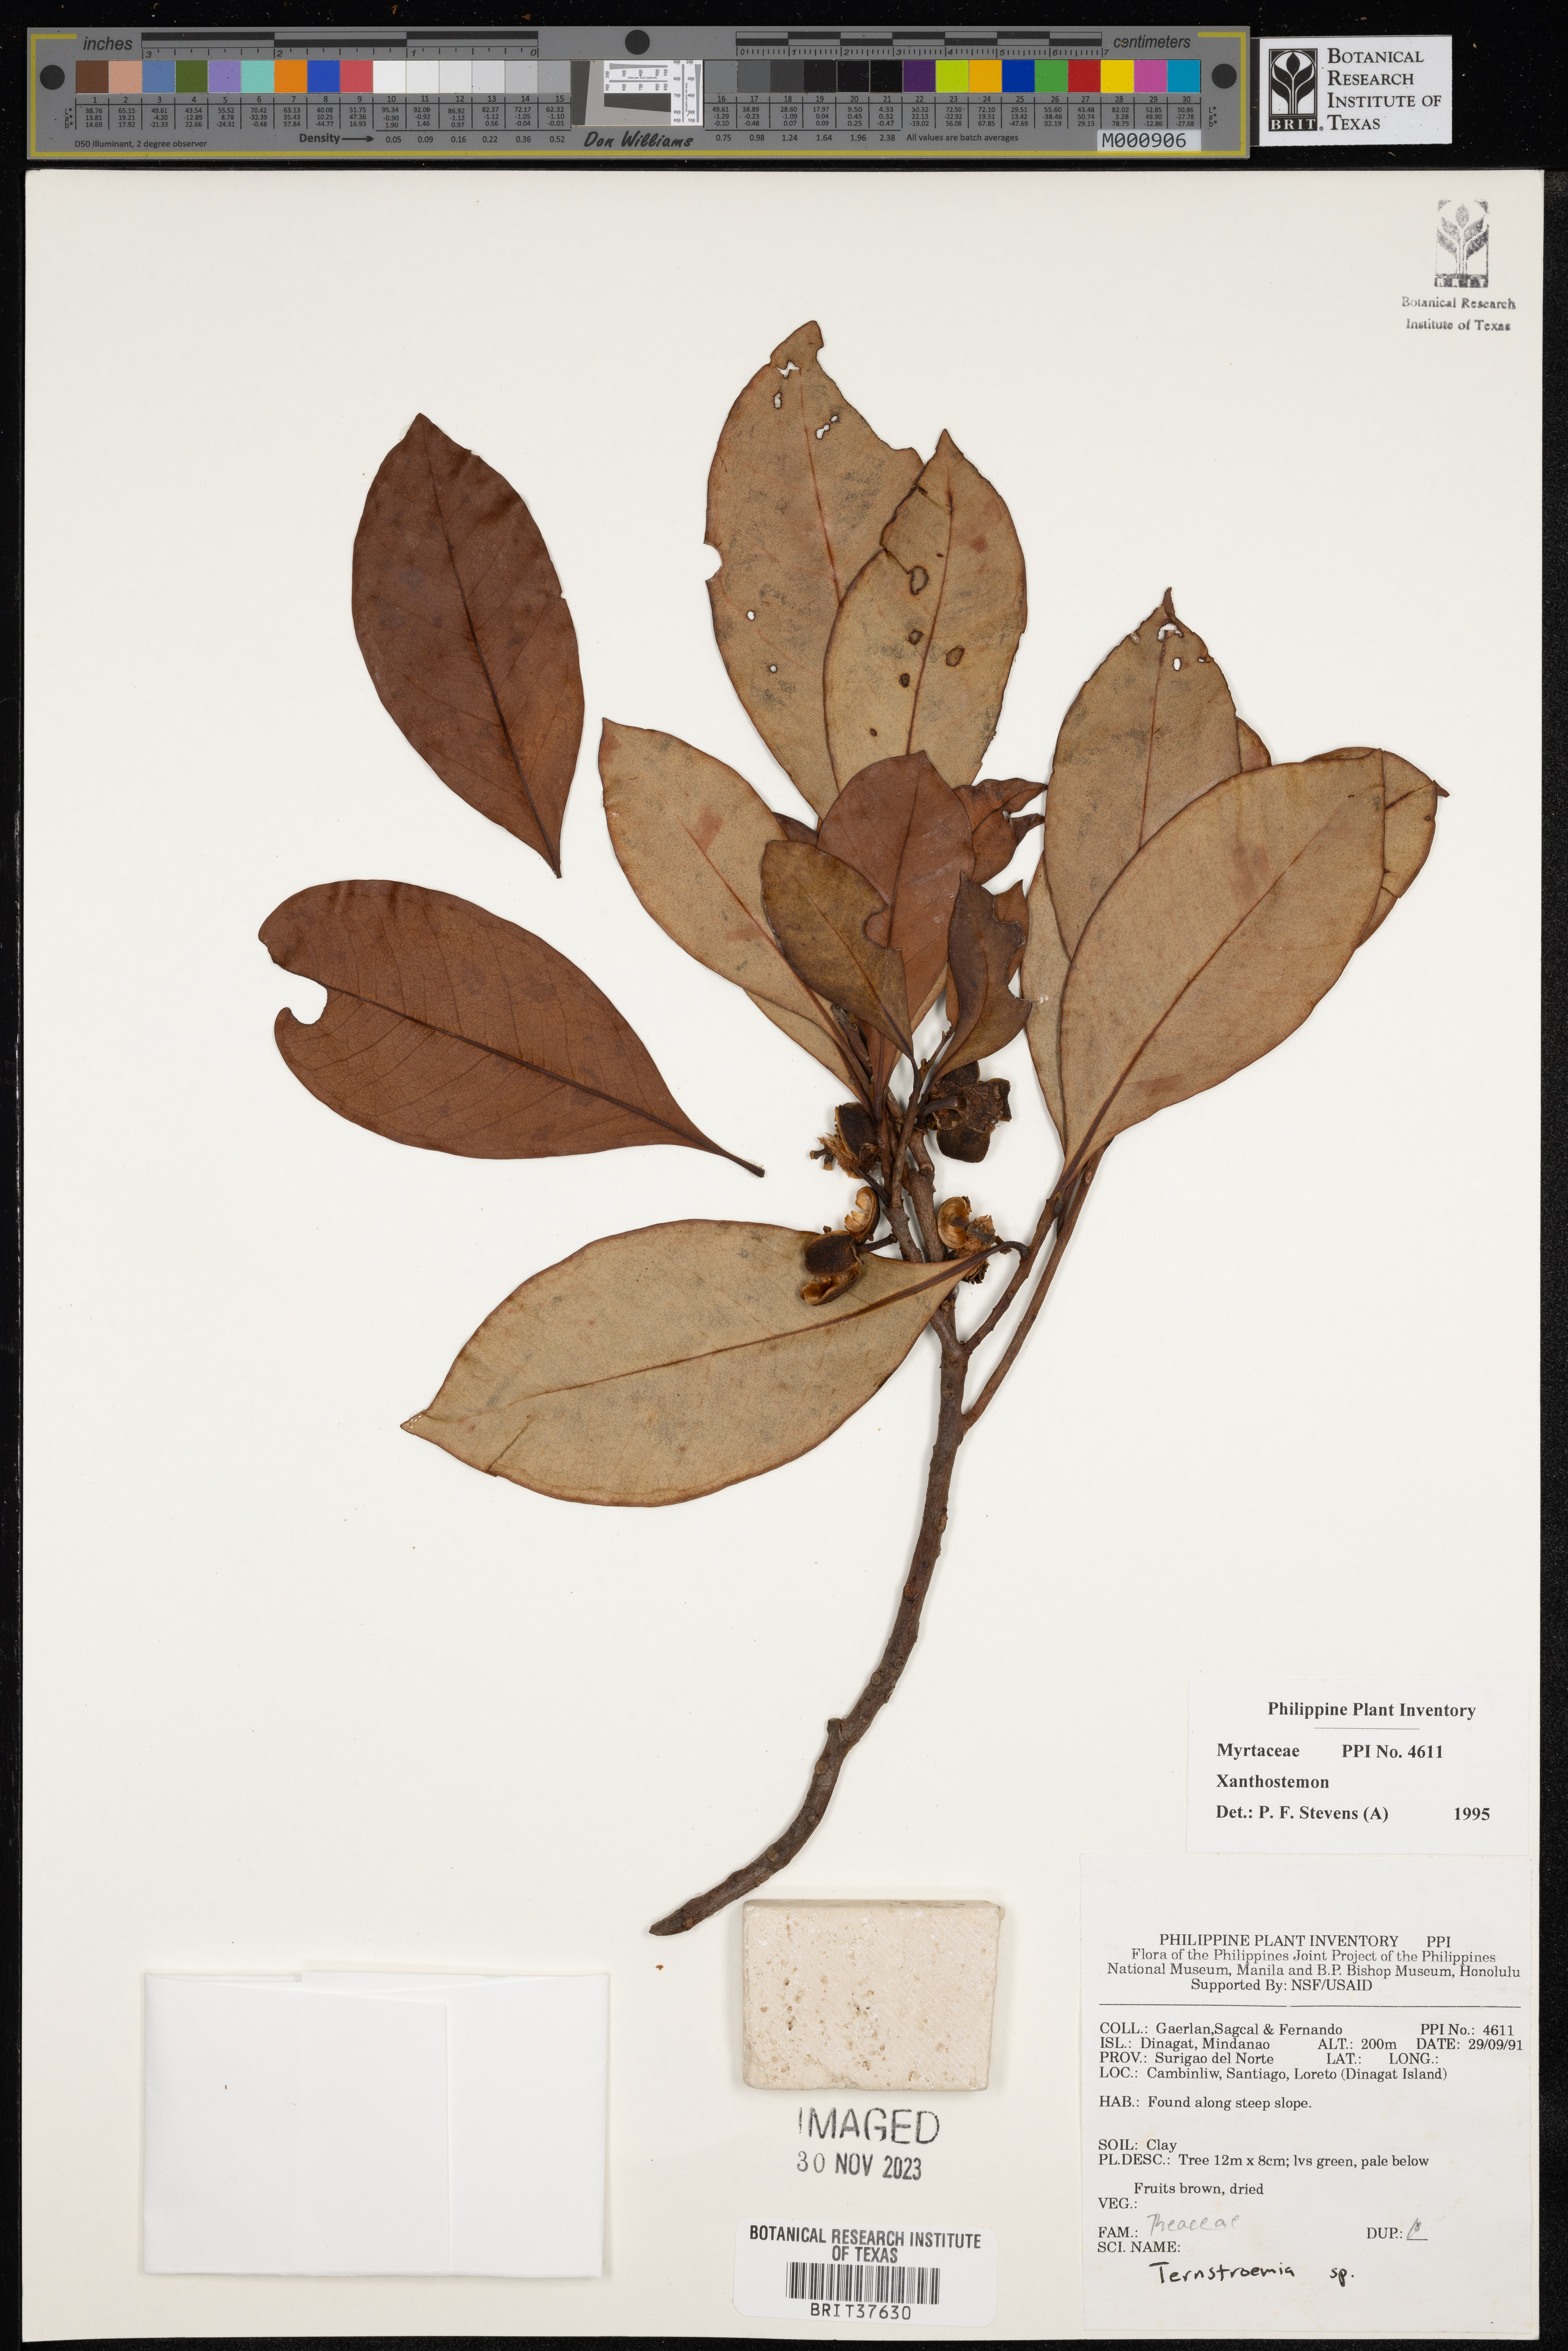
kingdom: Plantae
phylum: Tracheophyta
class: Magnoliopsida
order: Myrtales
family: Myrtaceae
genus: Xanthostemon
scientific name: Xanthostemon
